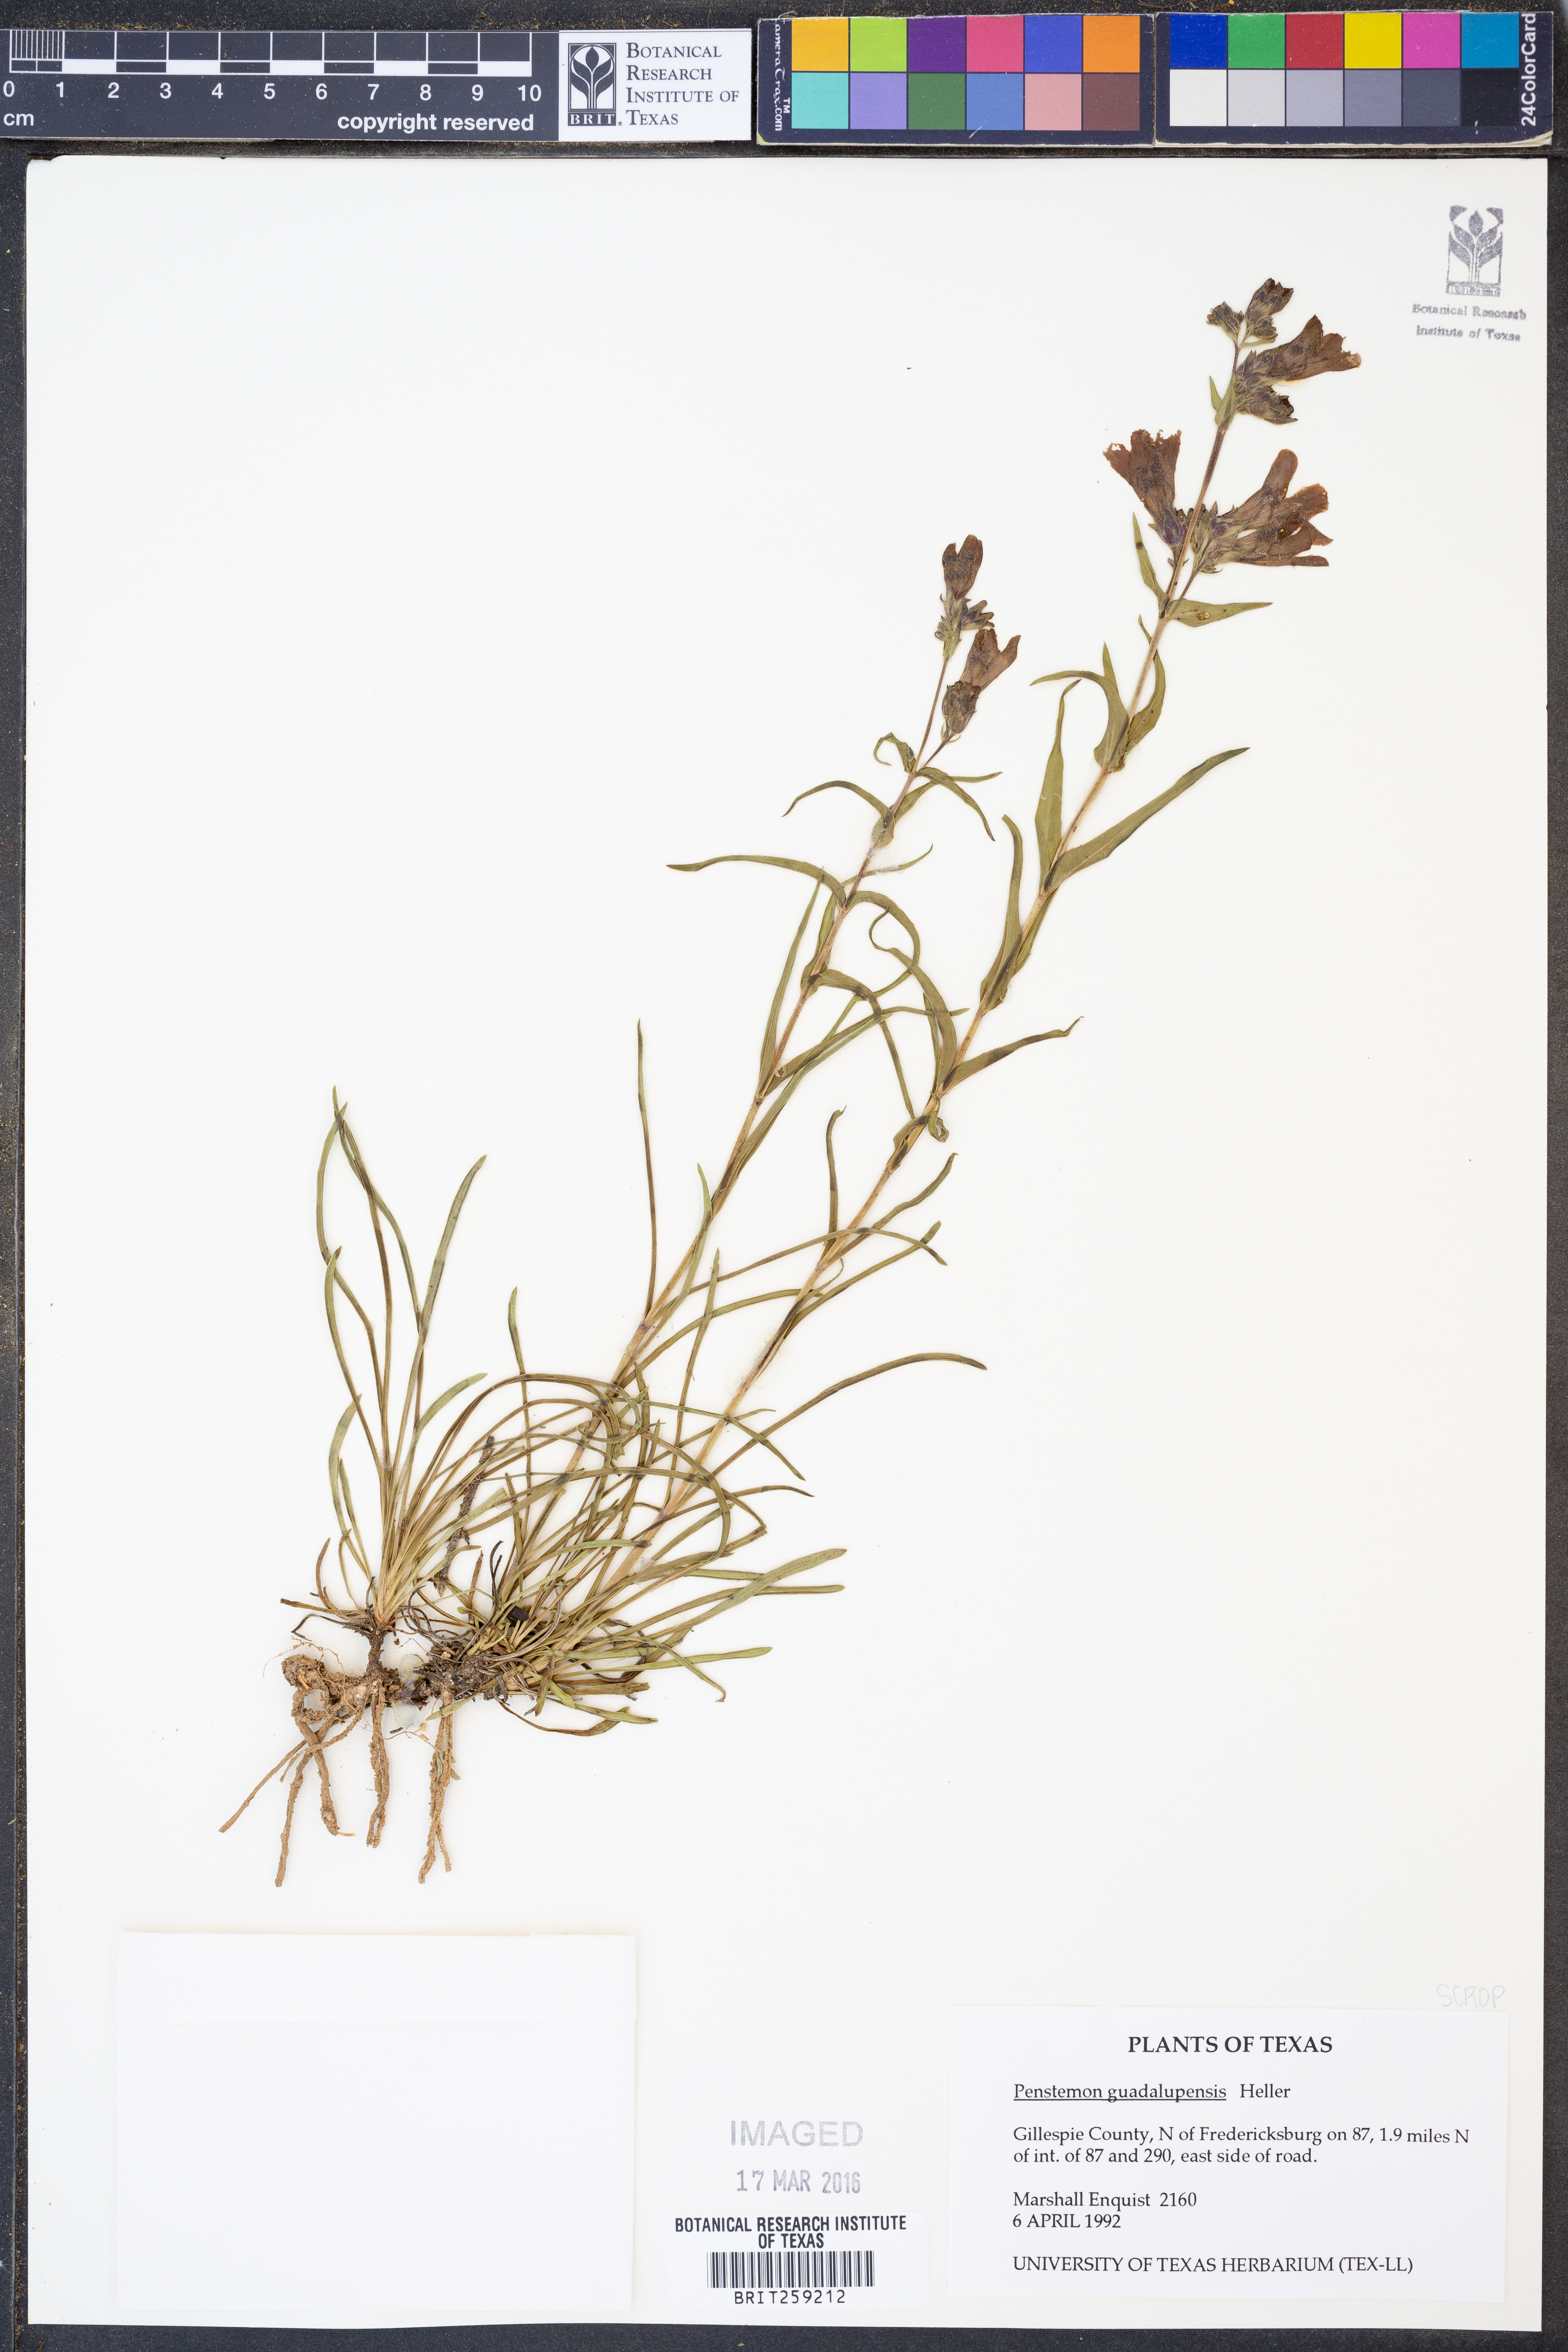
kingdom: Plantae
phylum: Tracheophyta
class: Magnoliopsida
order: Lamiales
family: Plantaginaceae
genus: Penstemon
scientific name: Penstemon guadalupensis
